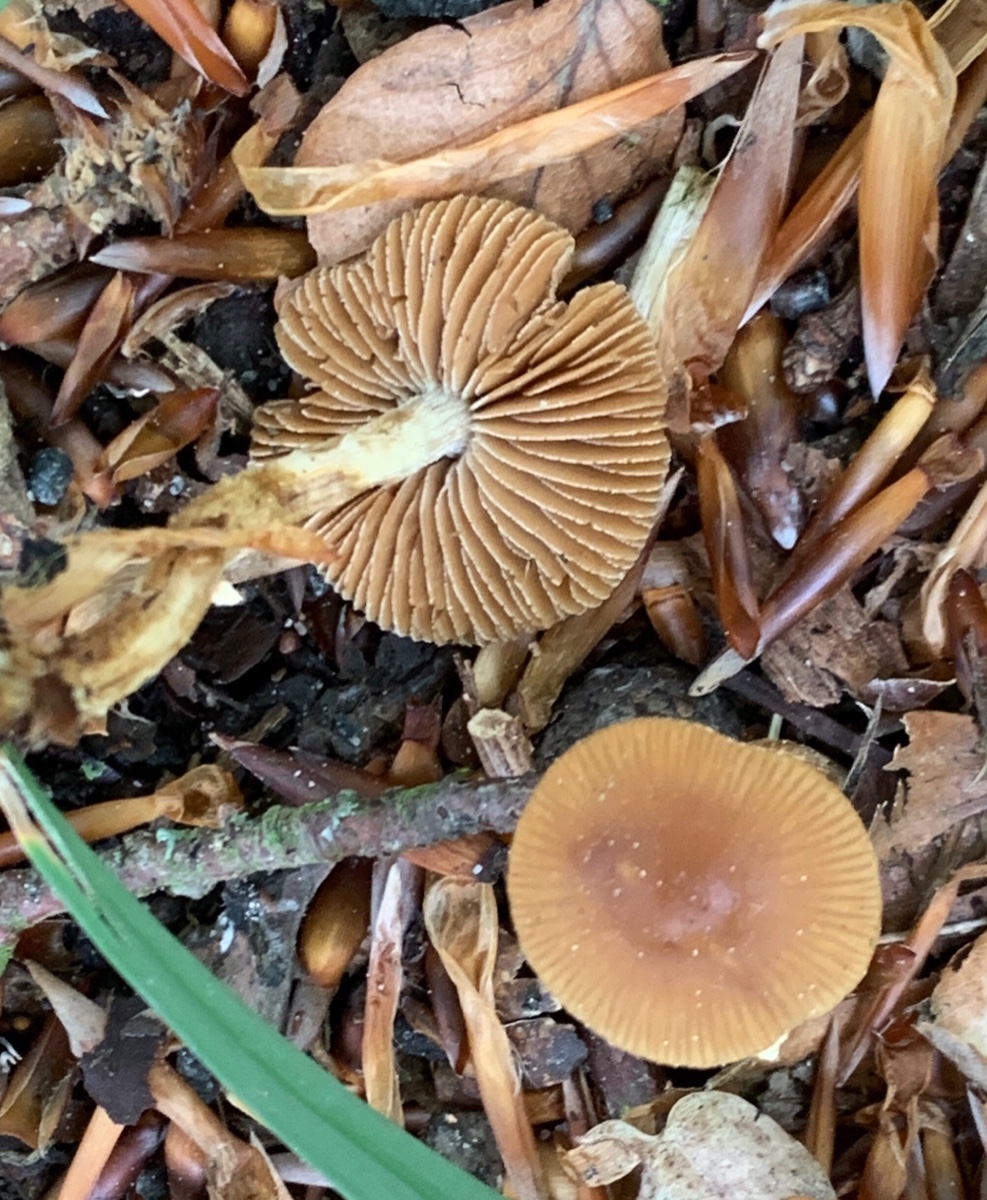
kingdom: Fungi
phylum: Basidiomycota
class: Agaricomycetes
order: Agaricales
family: Tubariaceae
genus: Tubaria
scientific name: Tubaria furfuracea
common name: kliddet fnughat
